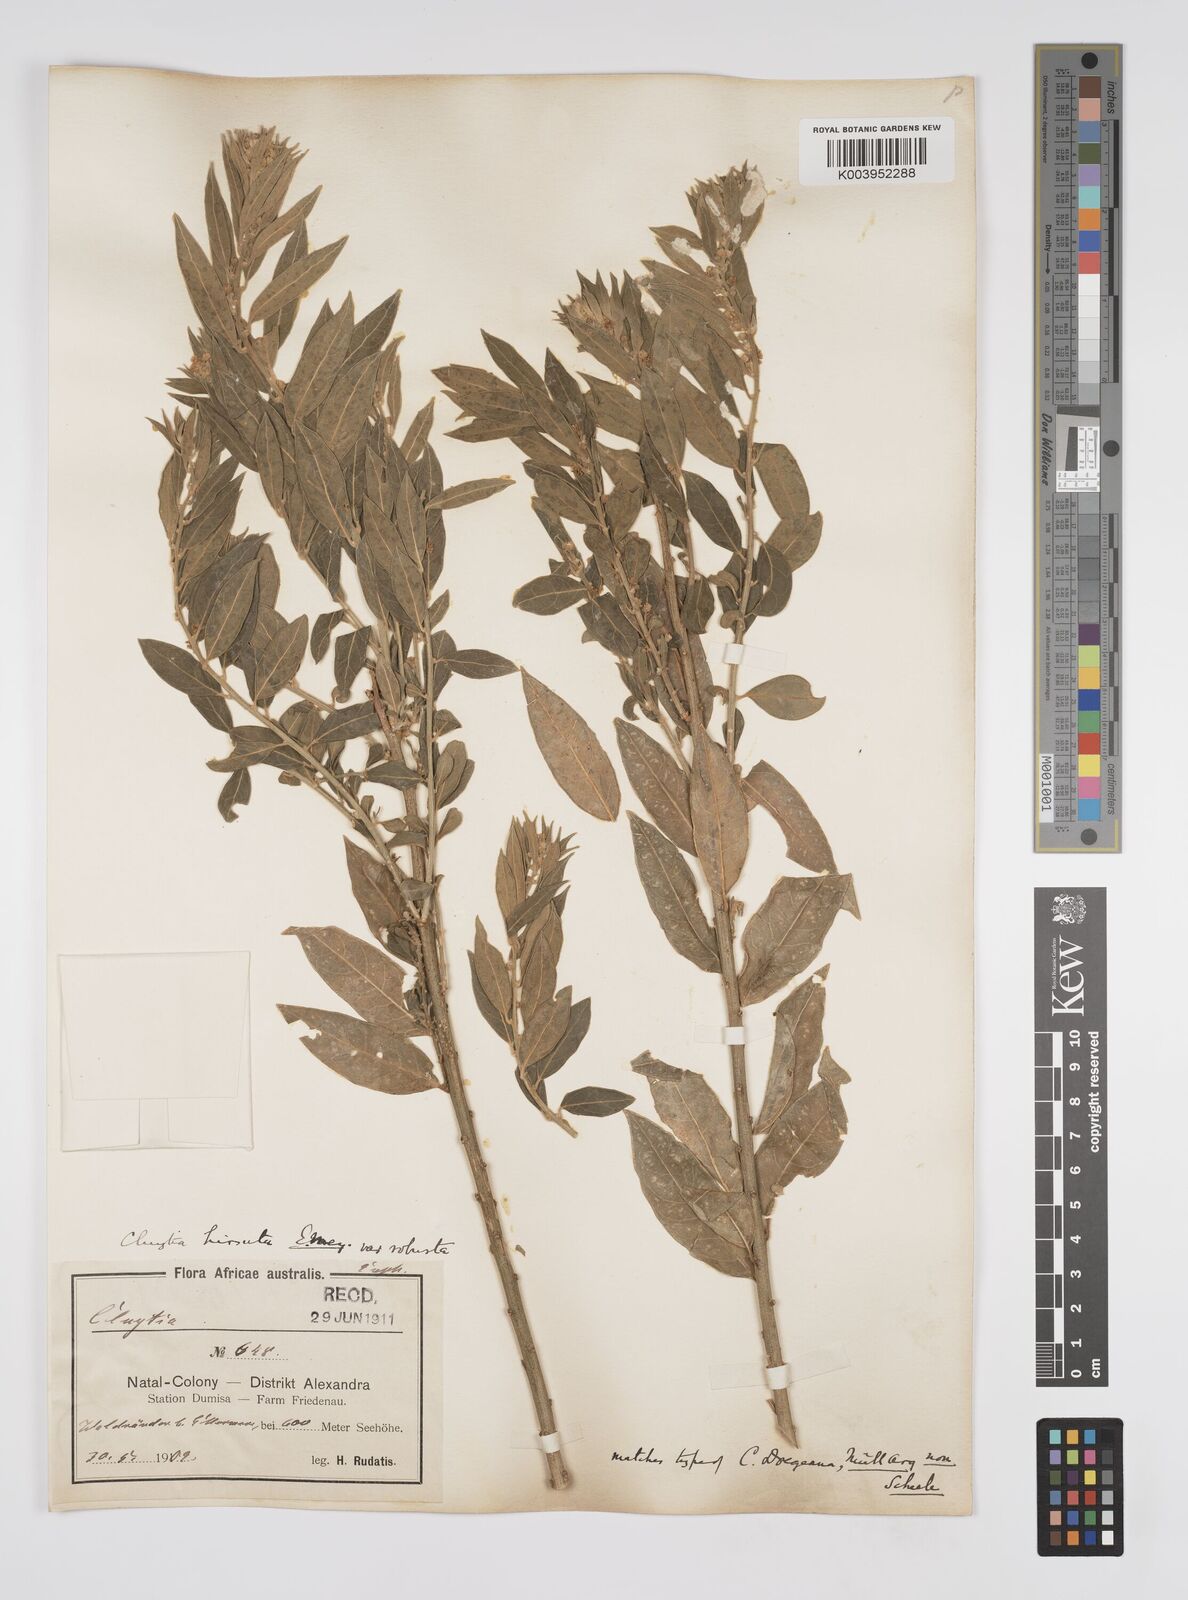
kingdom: Plantae
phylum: Tracheophyta
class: Magnoliopsida
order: Malpighiales
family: Peraceae
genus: Clutia
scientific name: Clutia hirsuta
